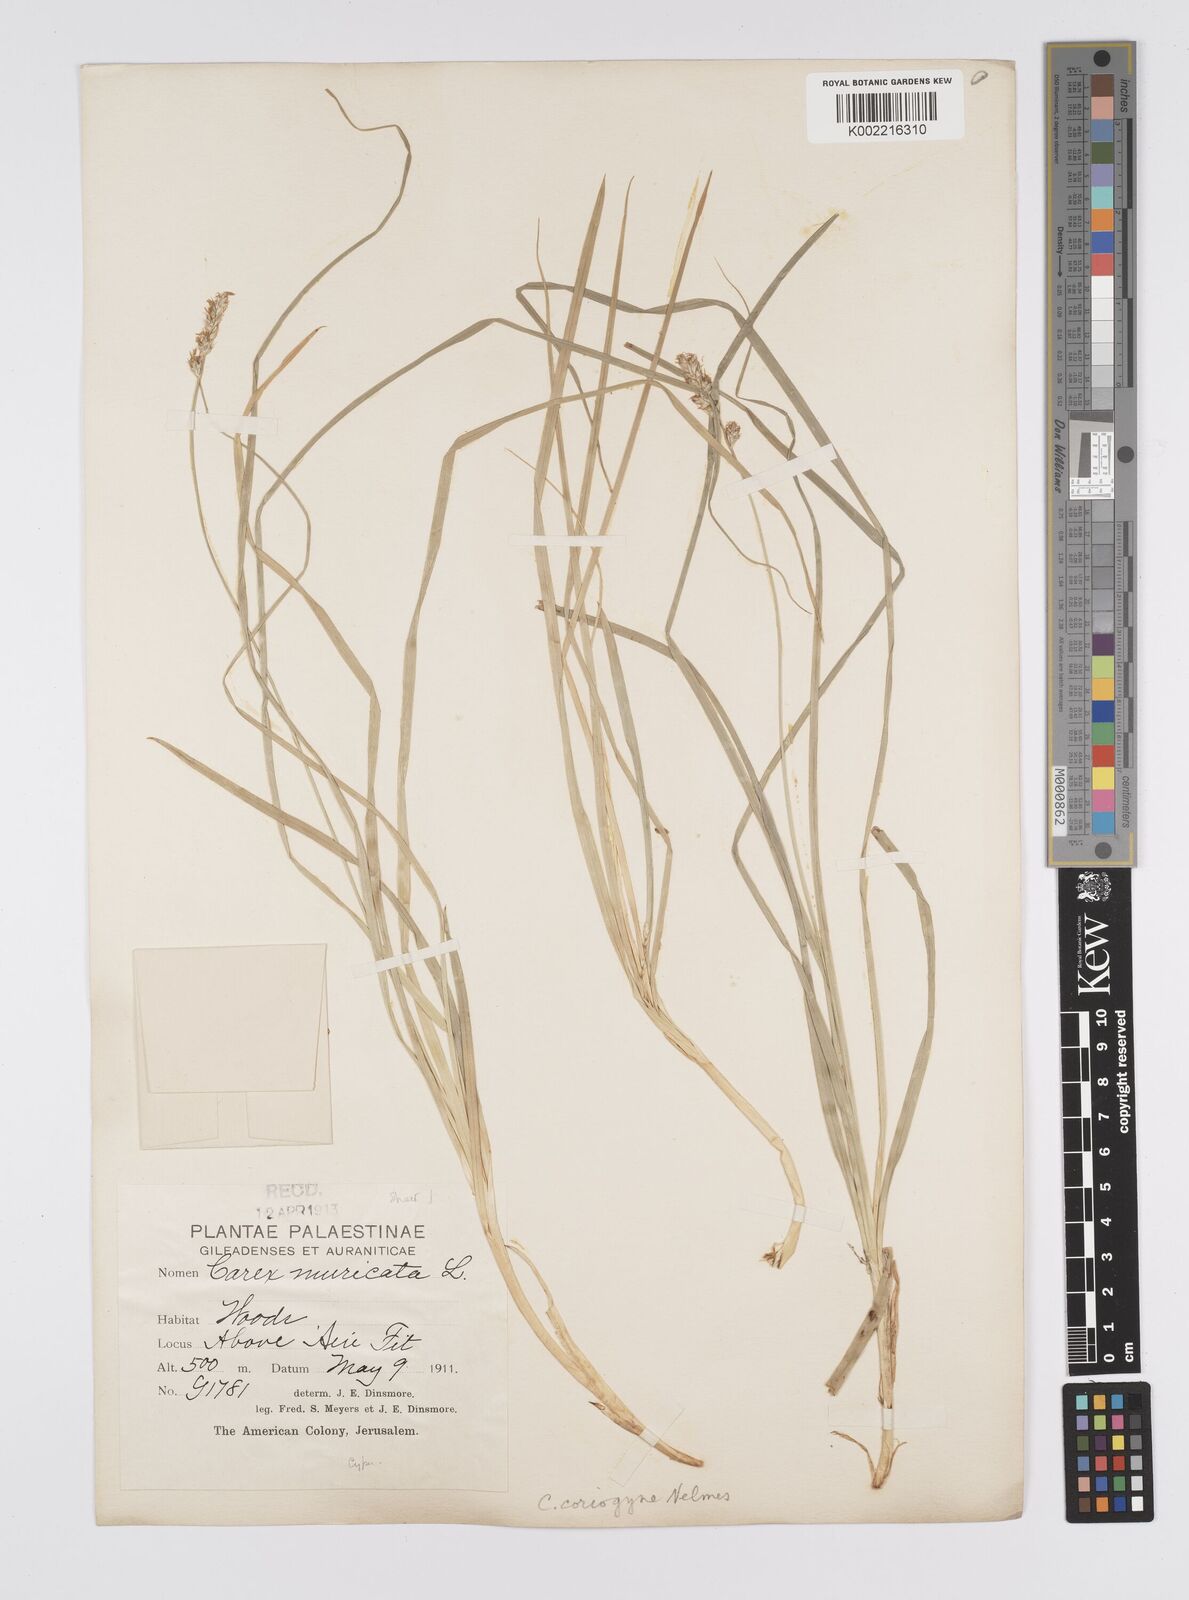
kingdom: Plantae
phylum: Tracheophyta
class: Liliopsida
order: Poales
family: Cyperaceae
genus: Carex
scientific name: Carex coriogyne
